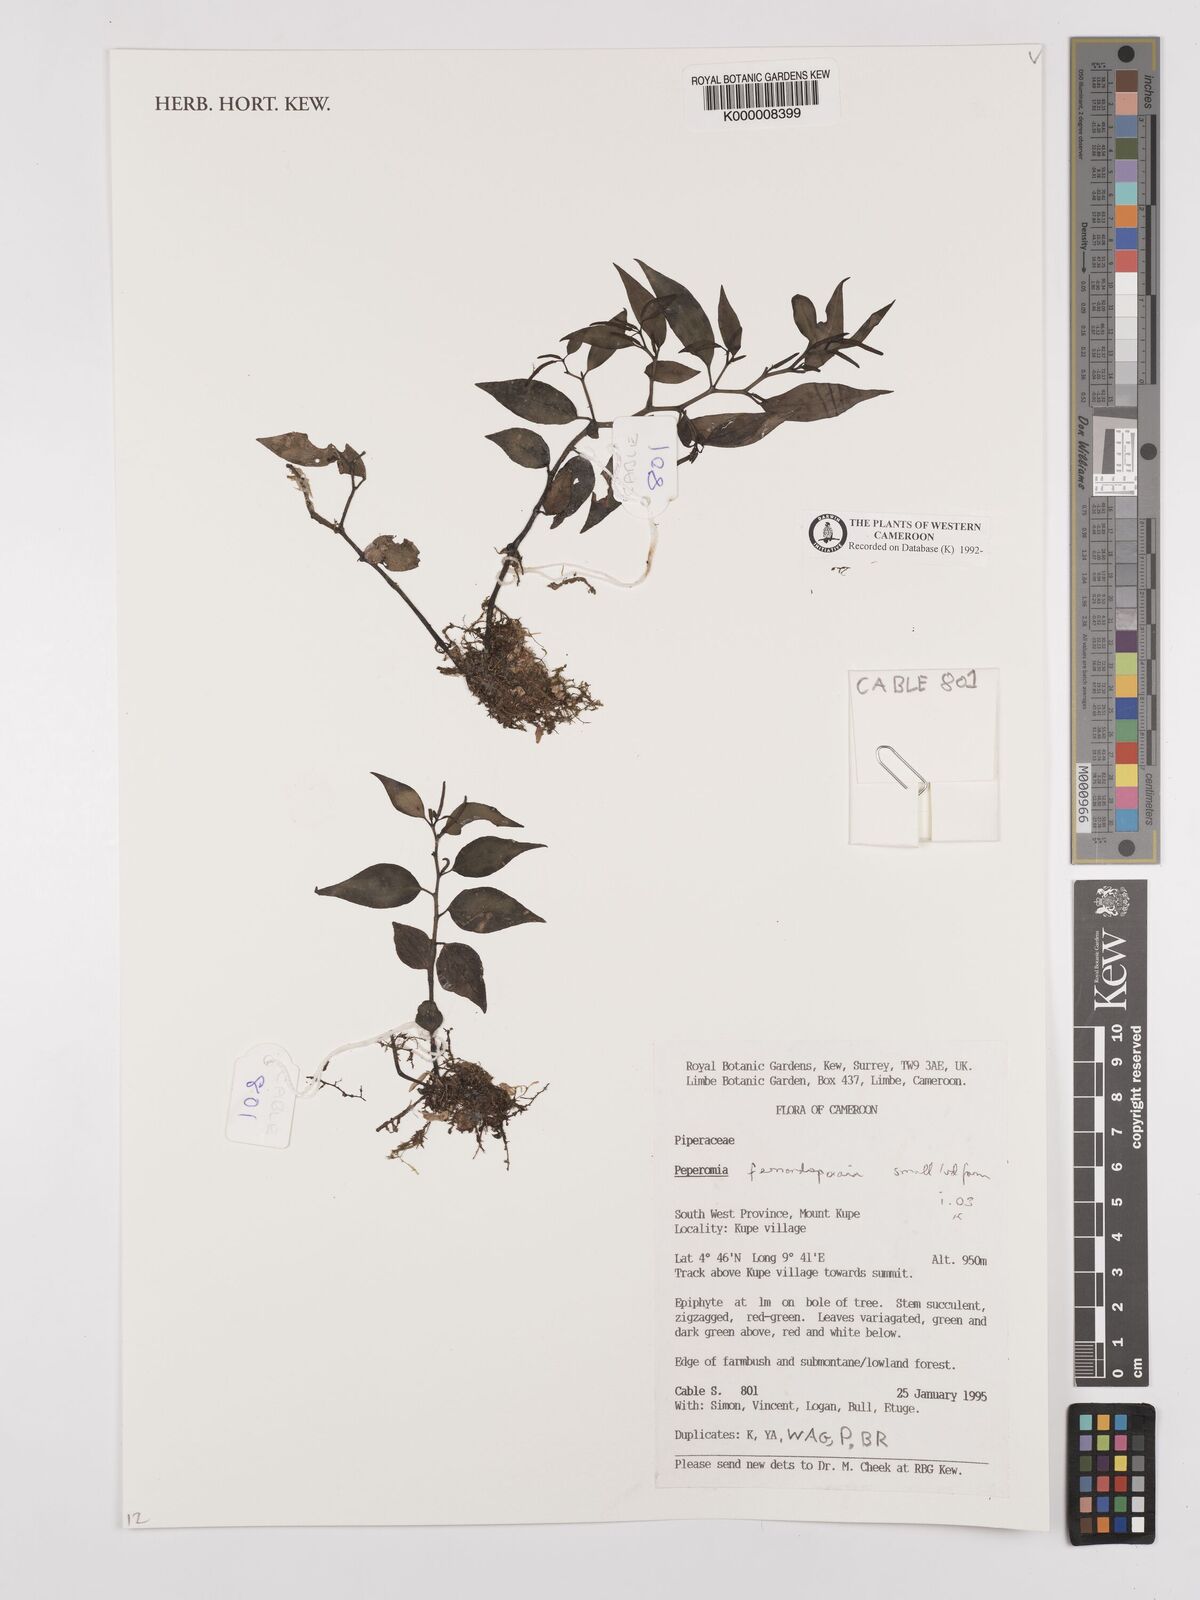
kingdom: Plantae
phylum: Tracheophyta
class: Magnoliopsida
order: Piperales
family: Piperaceae
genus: Peperomia
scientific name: Peperomia fernandopoiana
